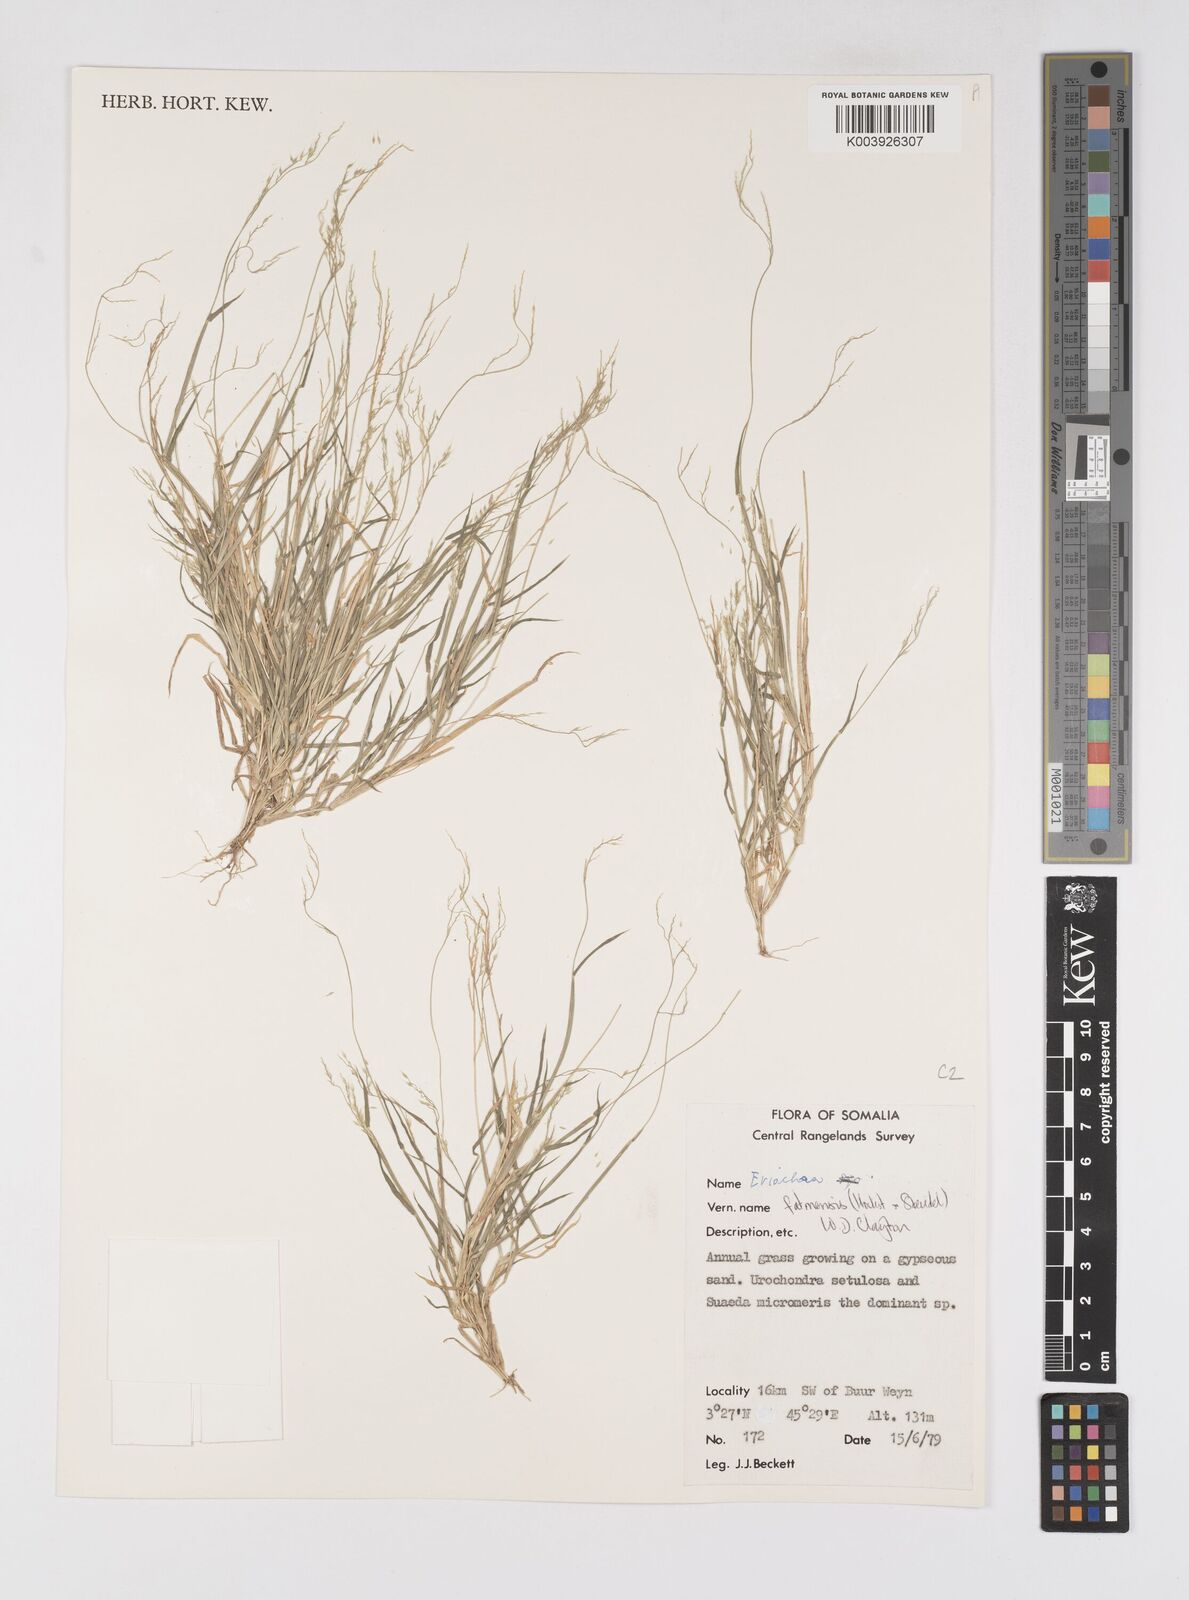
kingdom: Plantae
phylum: Tracheophyta
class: Liliopsida
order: Poales
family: Poaceae
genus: Eriochloa
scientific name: Eriochloa barbatus
